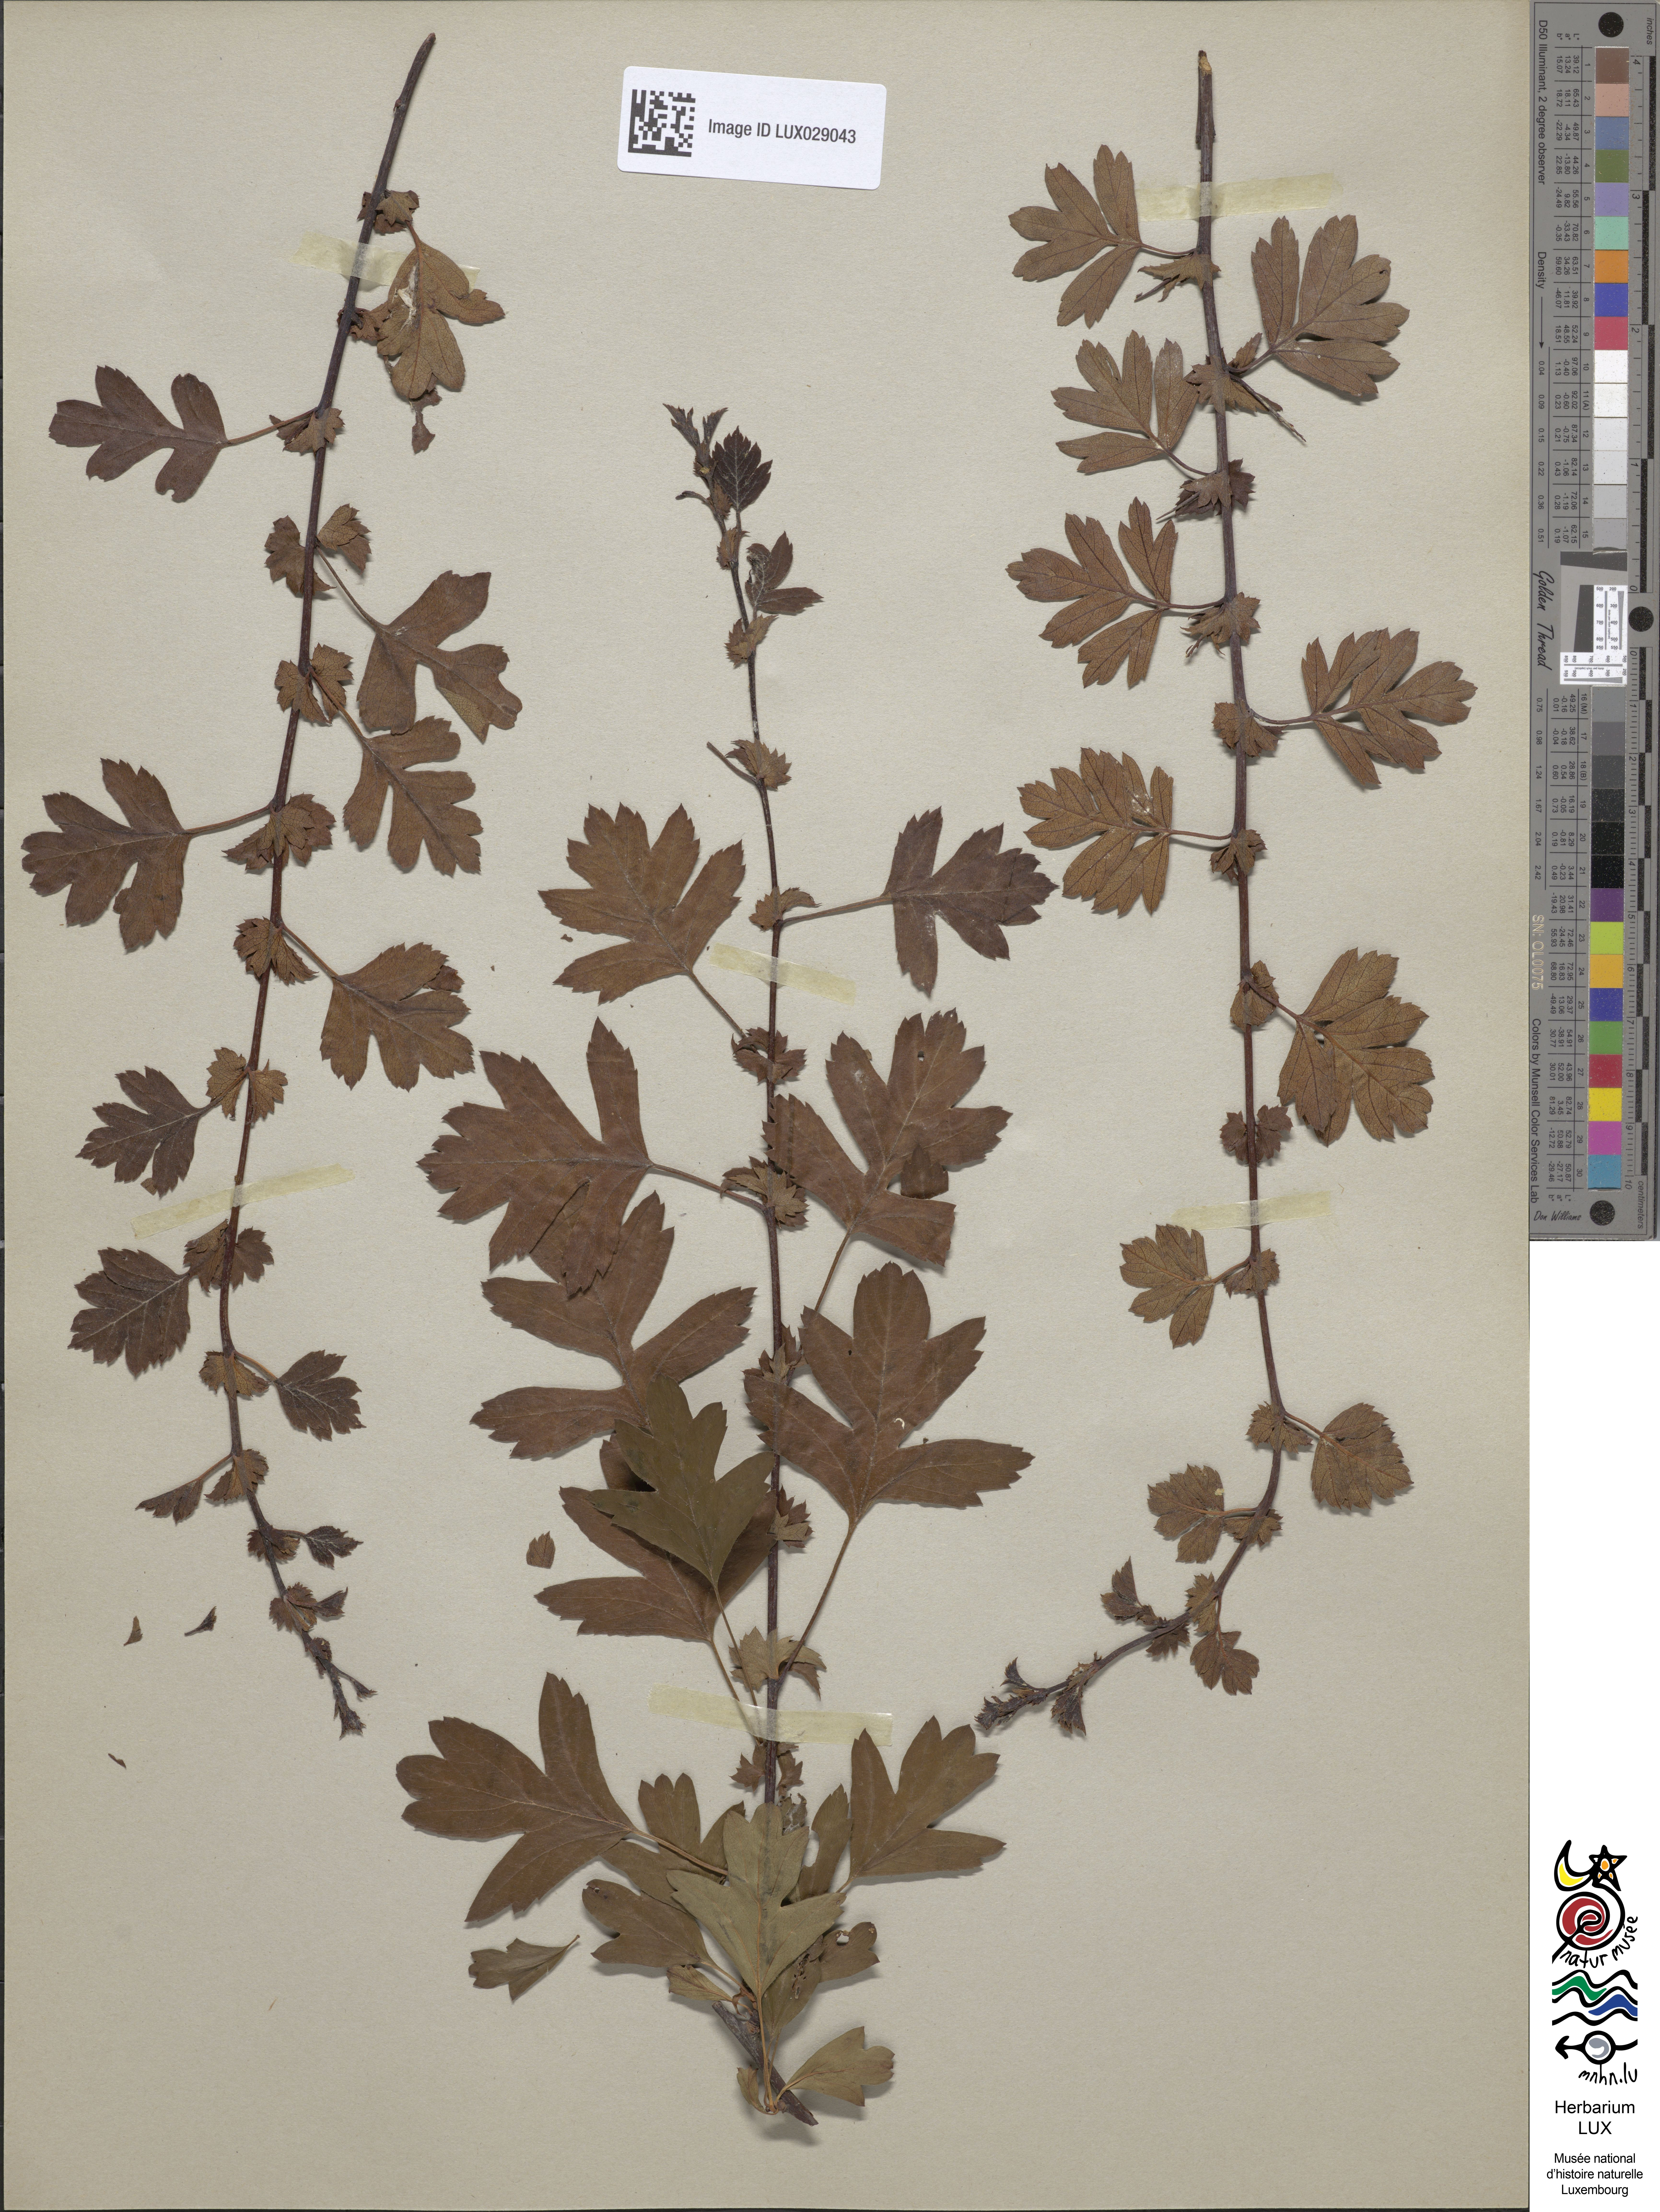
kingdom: Plantae
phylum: Tracheophyta
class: Magnoliopsida
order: Rosales
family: Rosaceae
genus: Crataegus
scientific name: Crataegus monogyna
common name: Hawthorn
